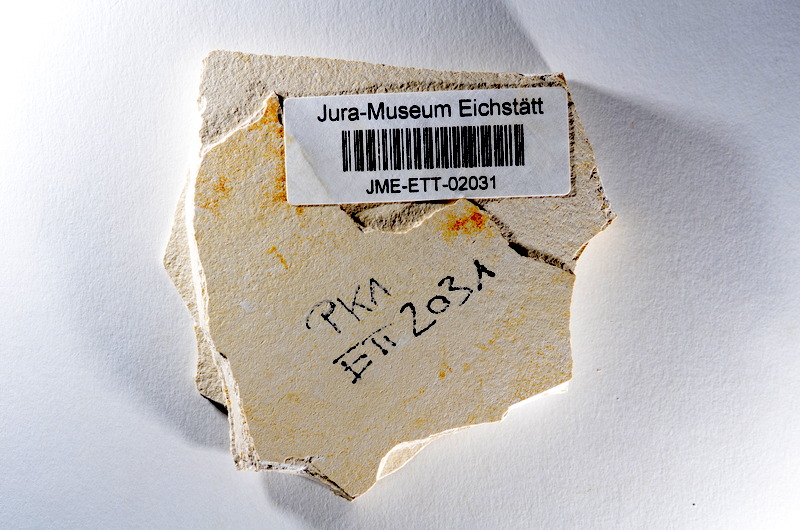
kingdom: Animalia
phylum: Chordata
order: Salmoniformes
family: Orthogonikleithridae
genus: Orthogonikleithrus
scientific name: Orthogonikleithrus hoelli
